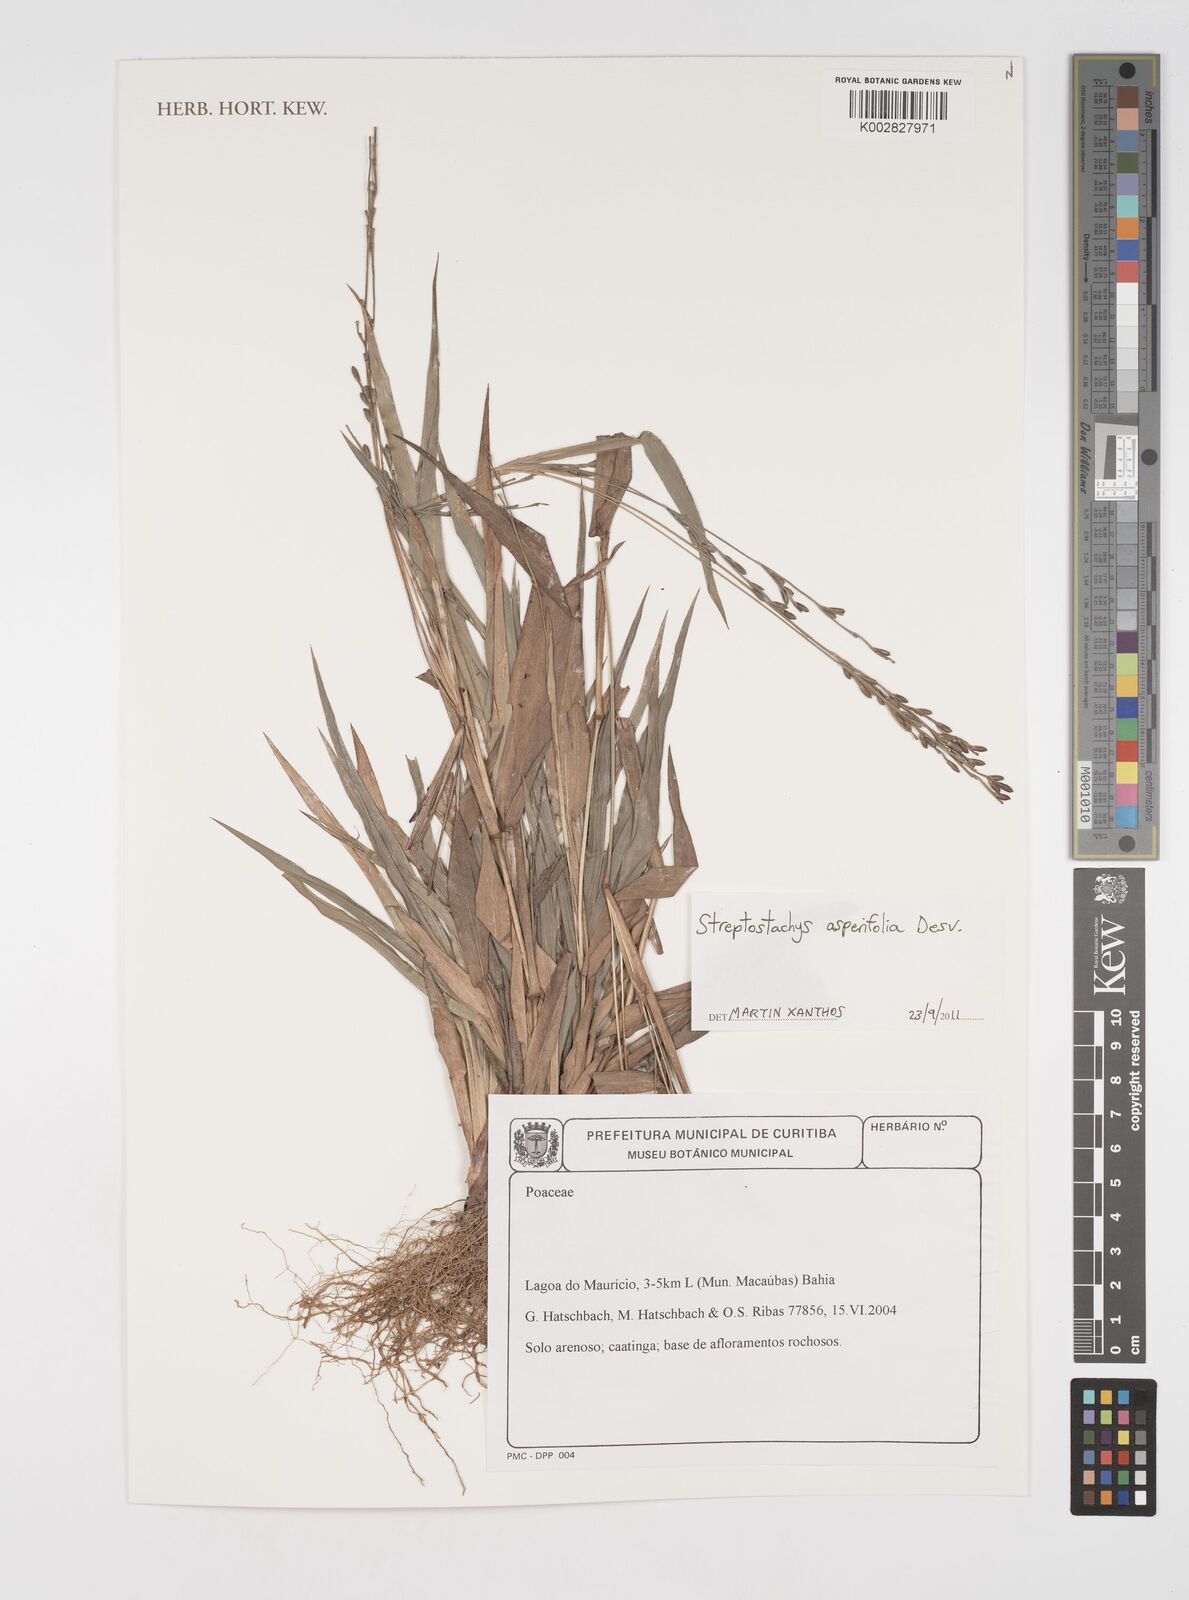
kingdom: Plantae
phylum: Tracheophyta
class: Liliopsida
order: Poales
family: Poaceae
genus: Streptostachys
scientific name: Streptostachys asperifolia
